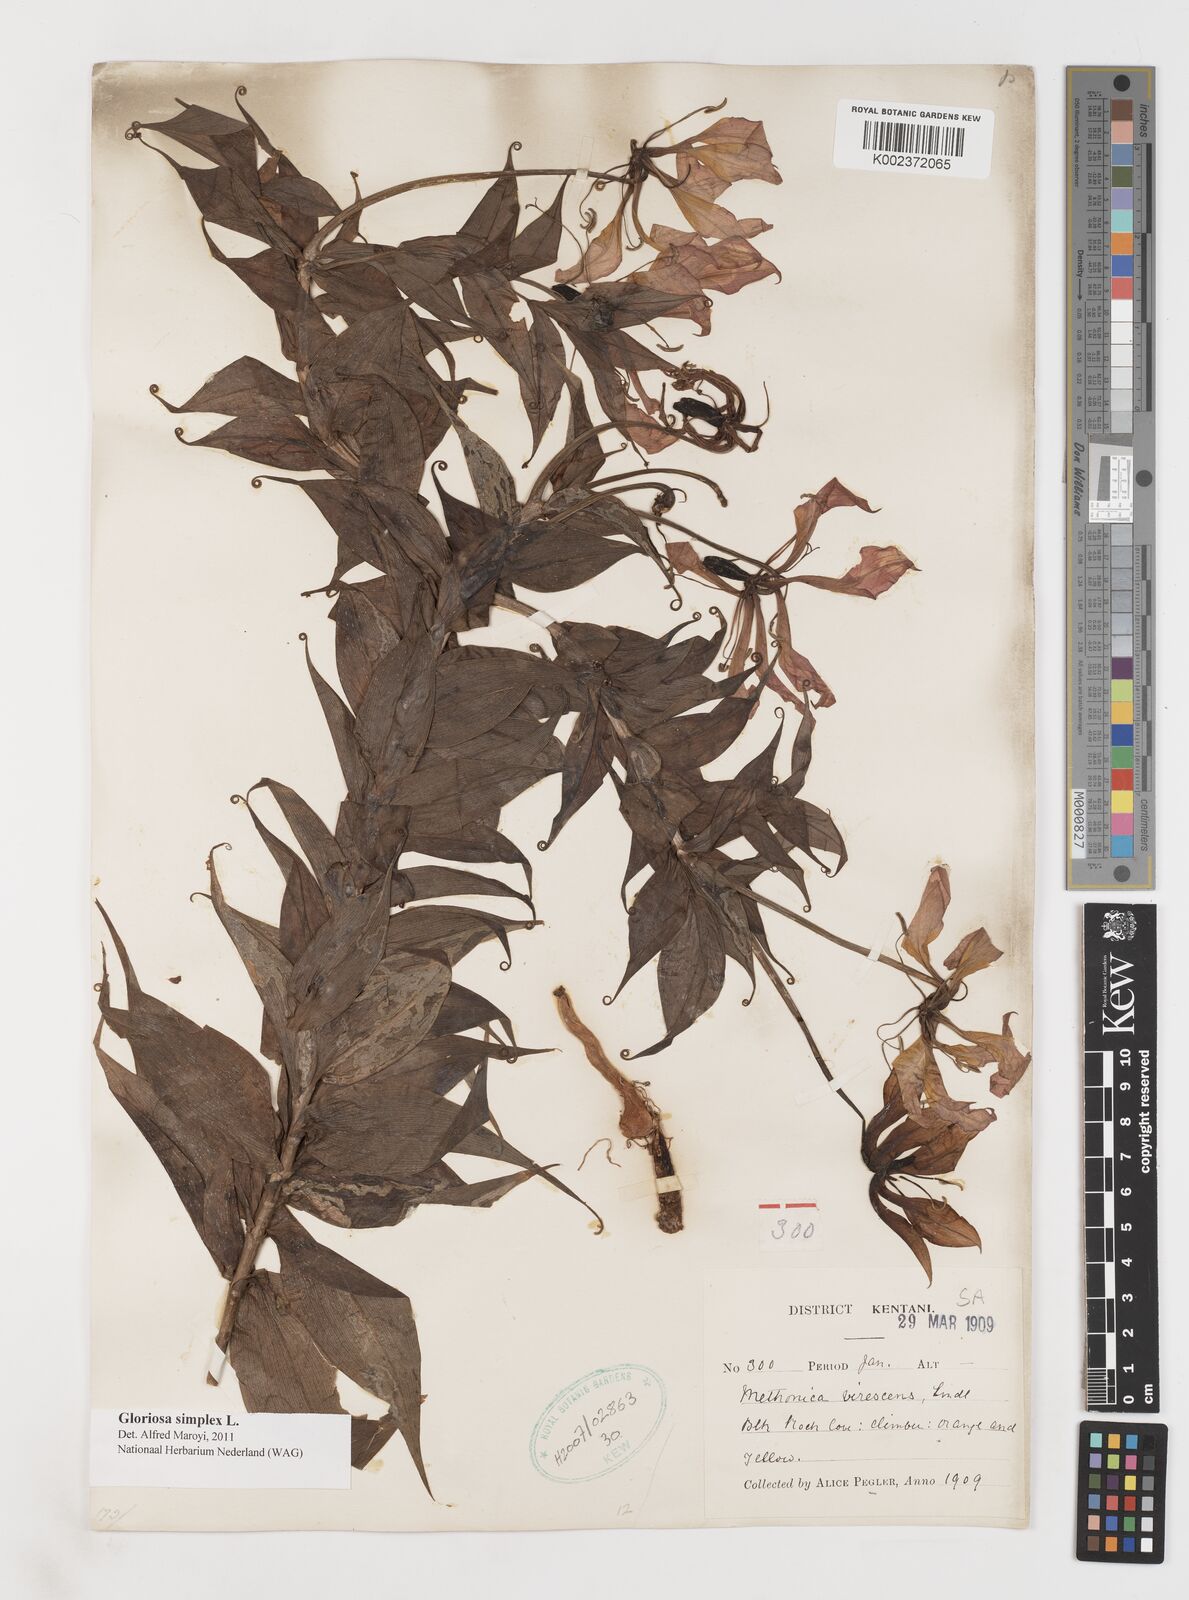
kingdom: Plantae
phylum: Tracheophyta
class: Liliopsida
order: Liliales
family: Colchicaceae
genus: Gloriosa
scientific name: Gloriosa simplex
